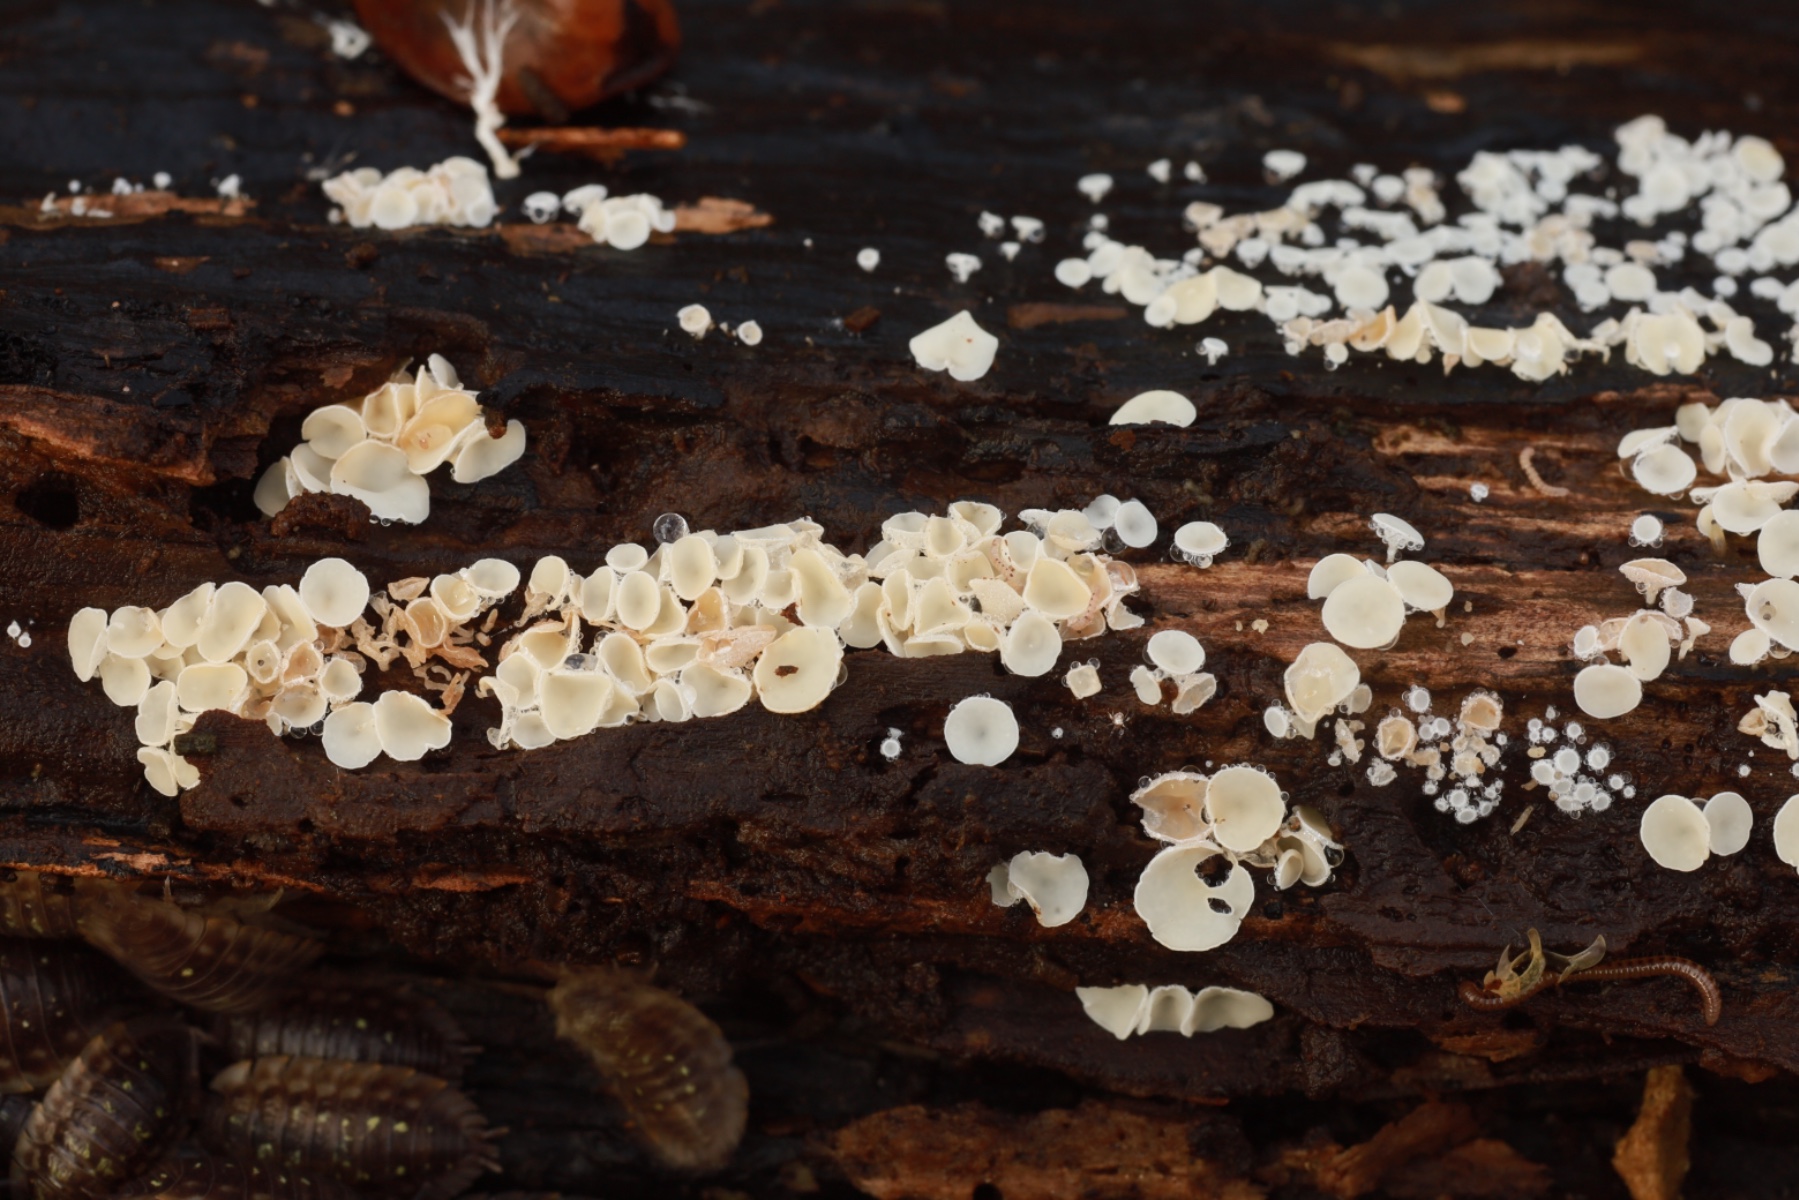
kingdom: Fungi
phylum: Ascomycota
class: Leotiomycetes
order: Helotiales
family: Lachnaceae
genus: Lachnum
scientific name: Lachnum
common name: frynseskive
